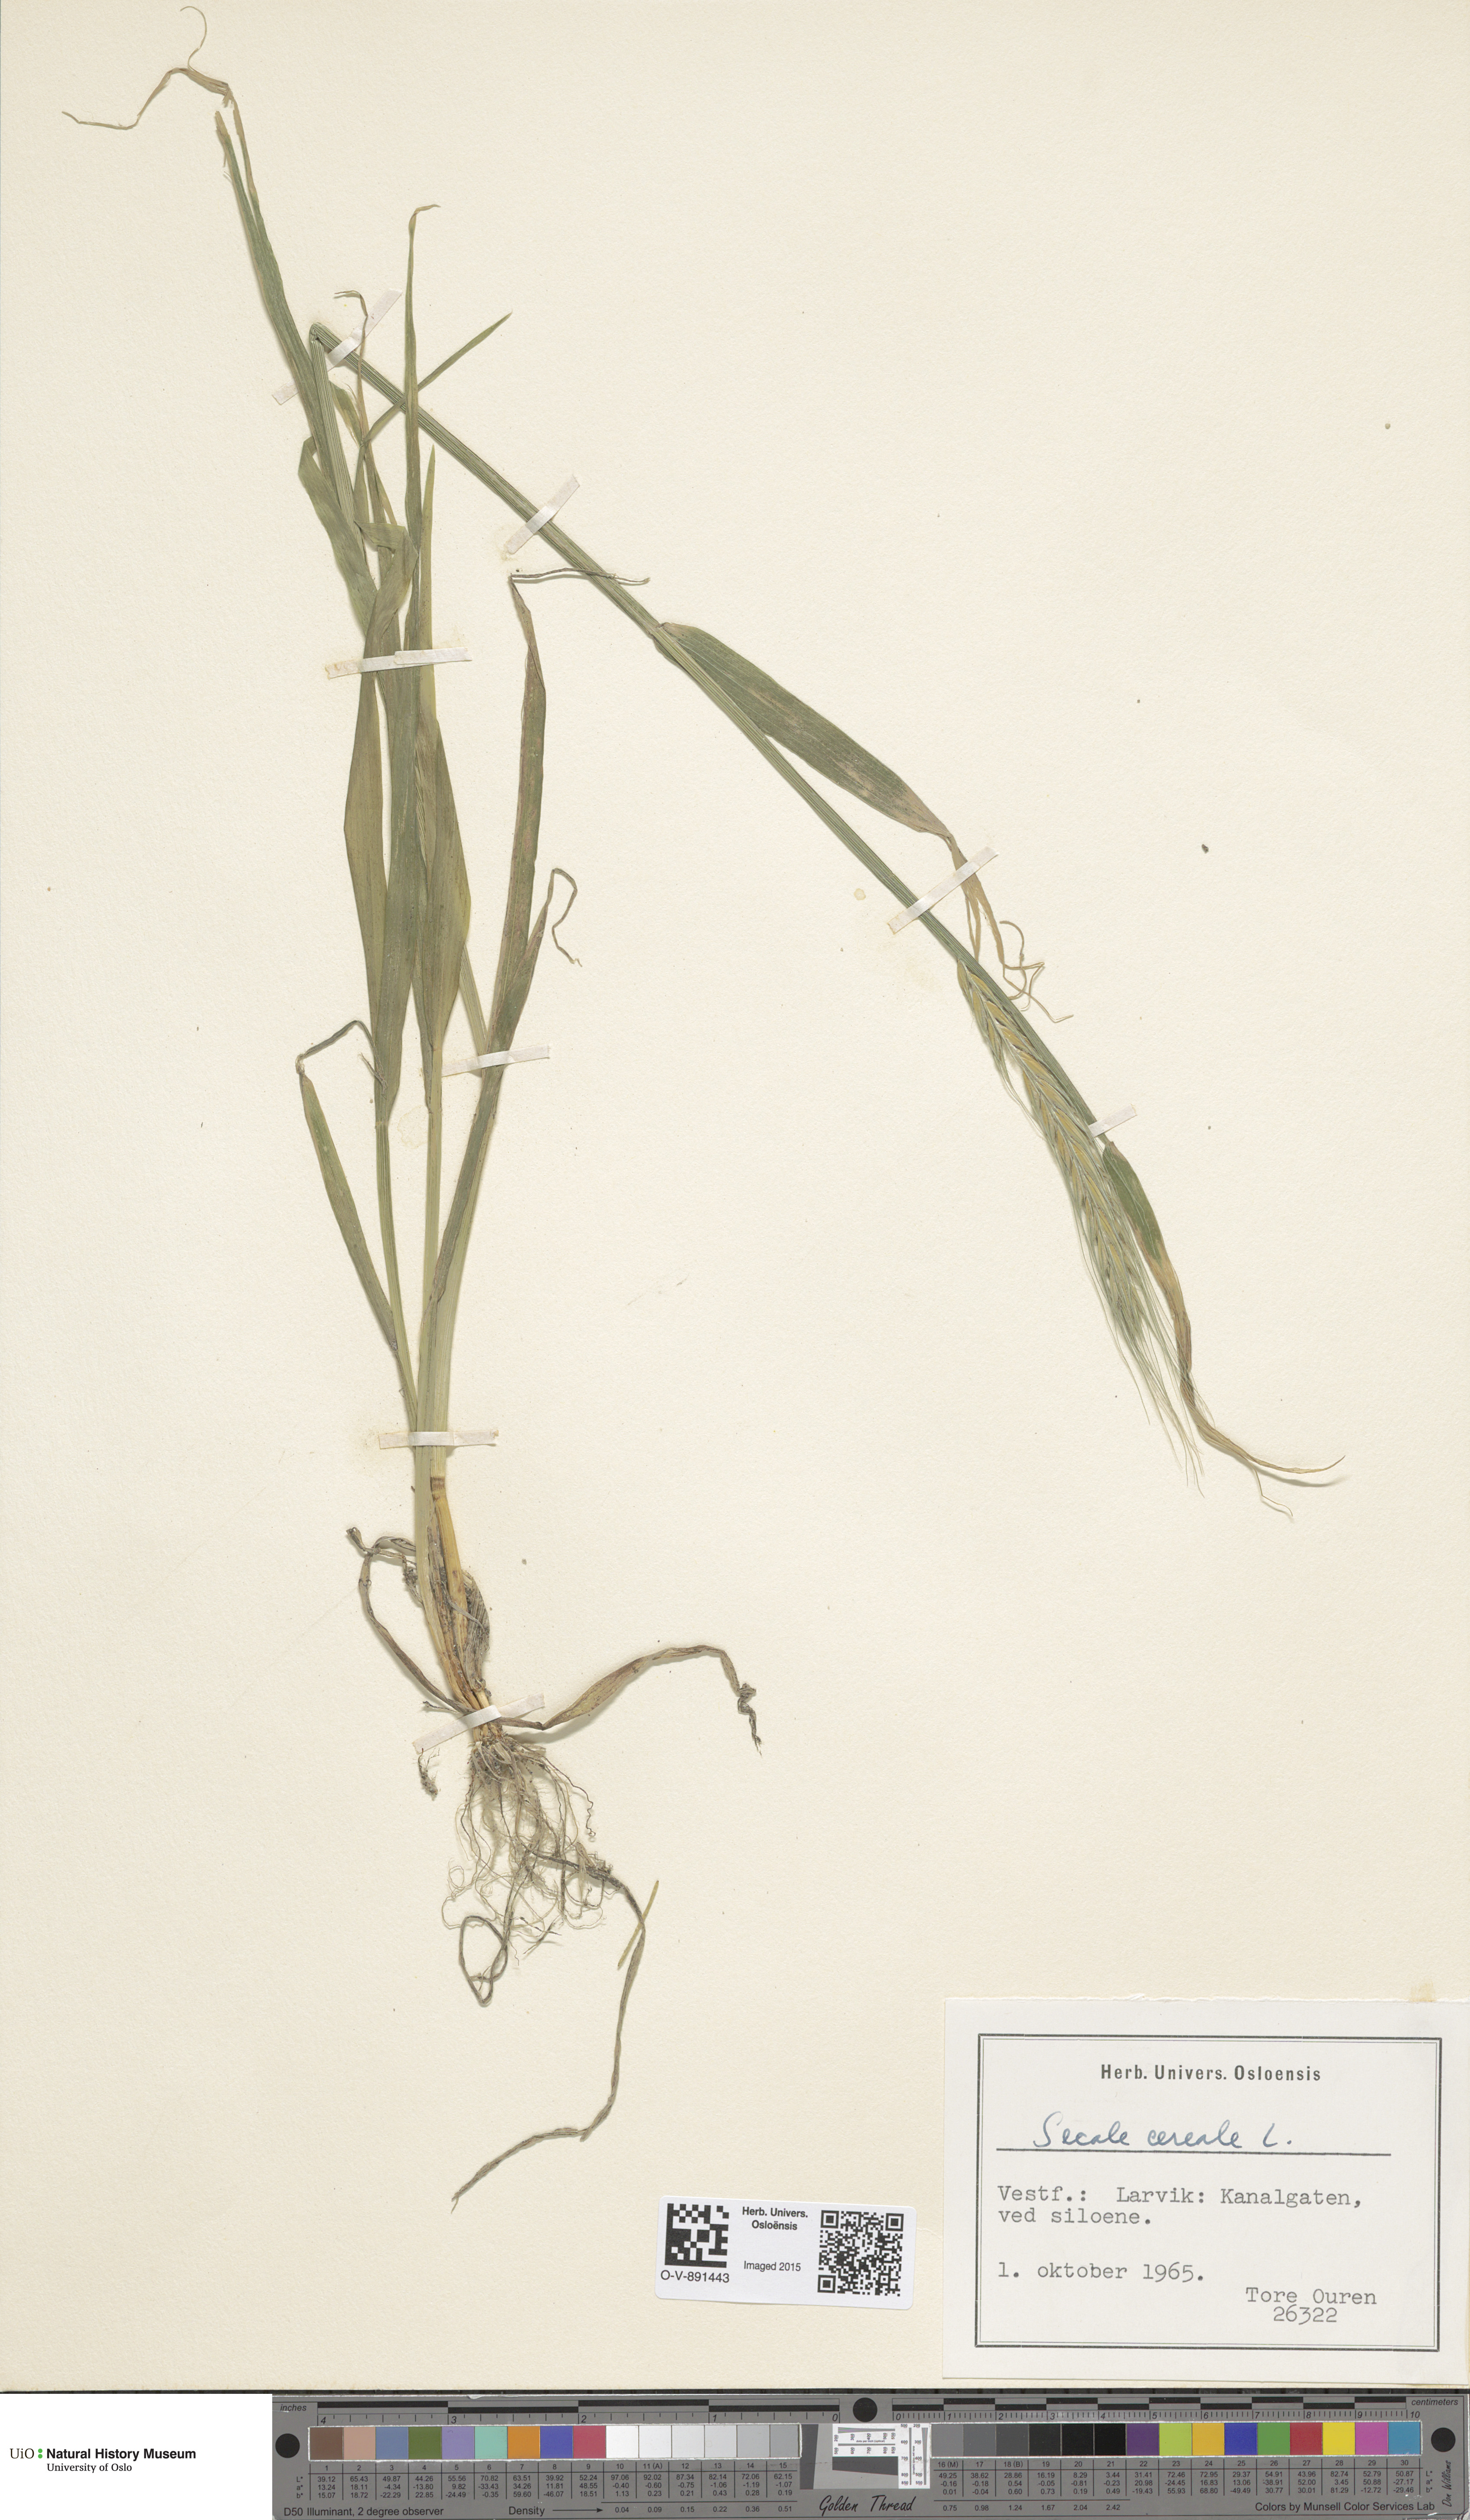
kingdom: Plantae
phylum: Tracheophyta
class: Liliopsida
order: Poales
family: Poaceae
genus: Secale
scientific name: Secale cereale
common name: Rye
